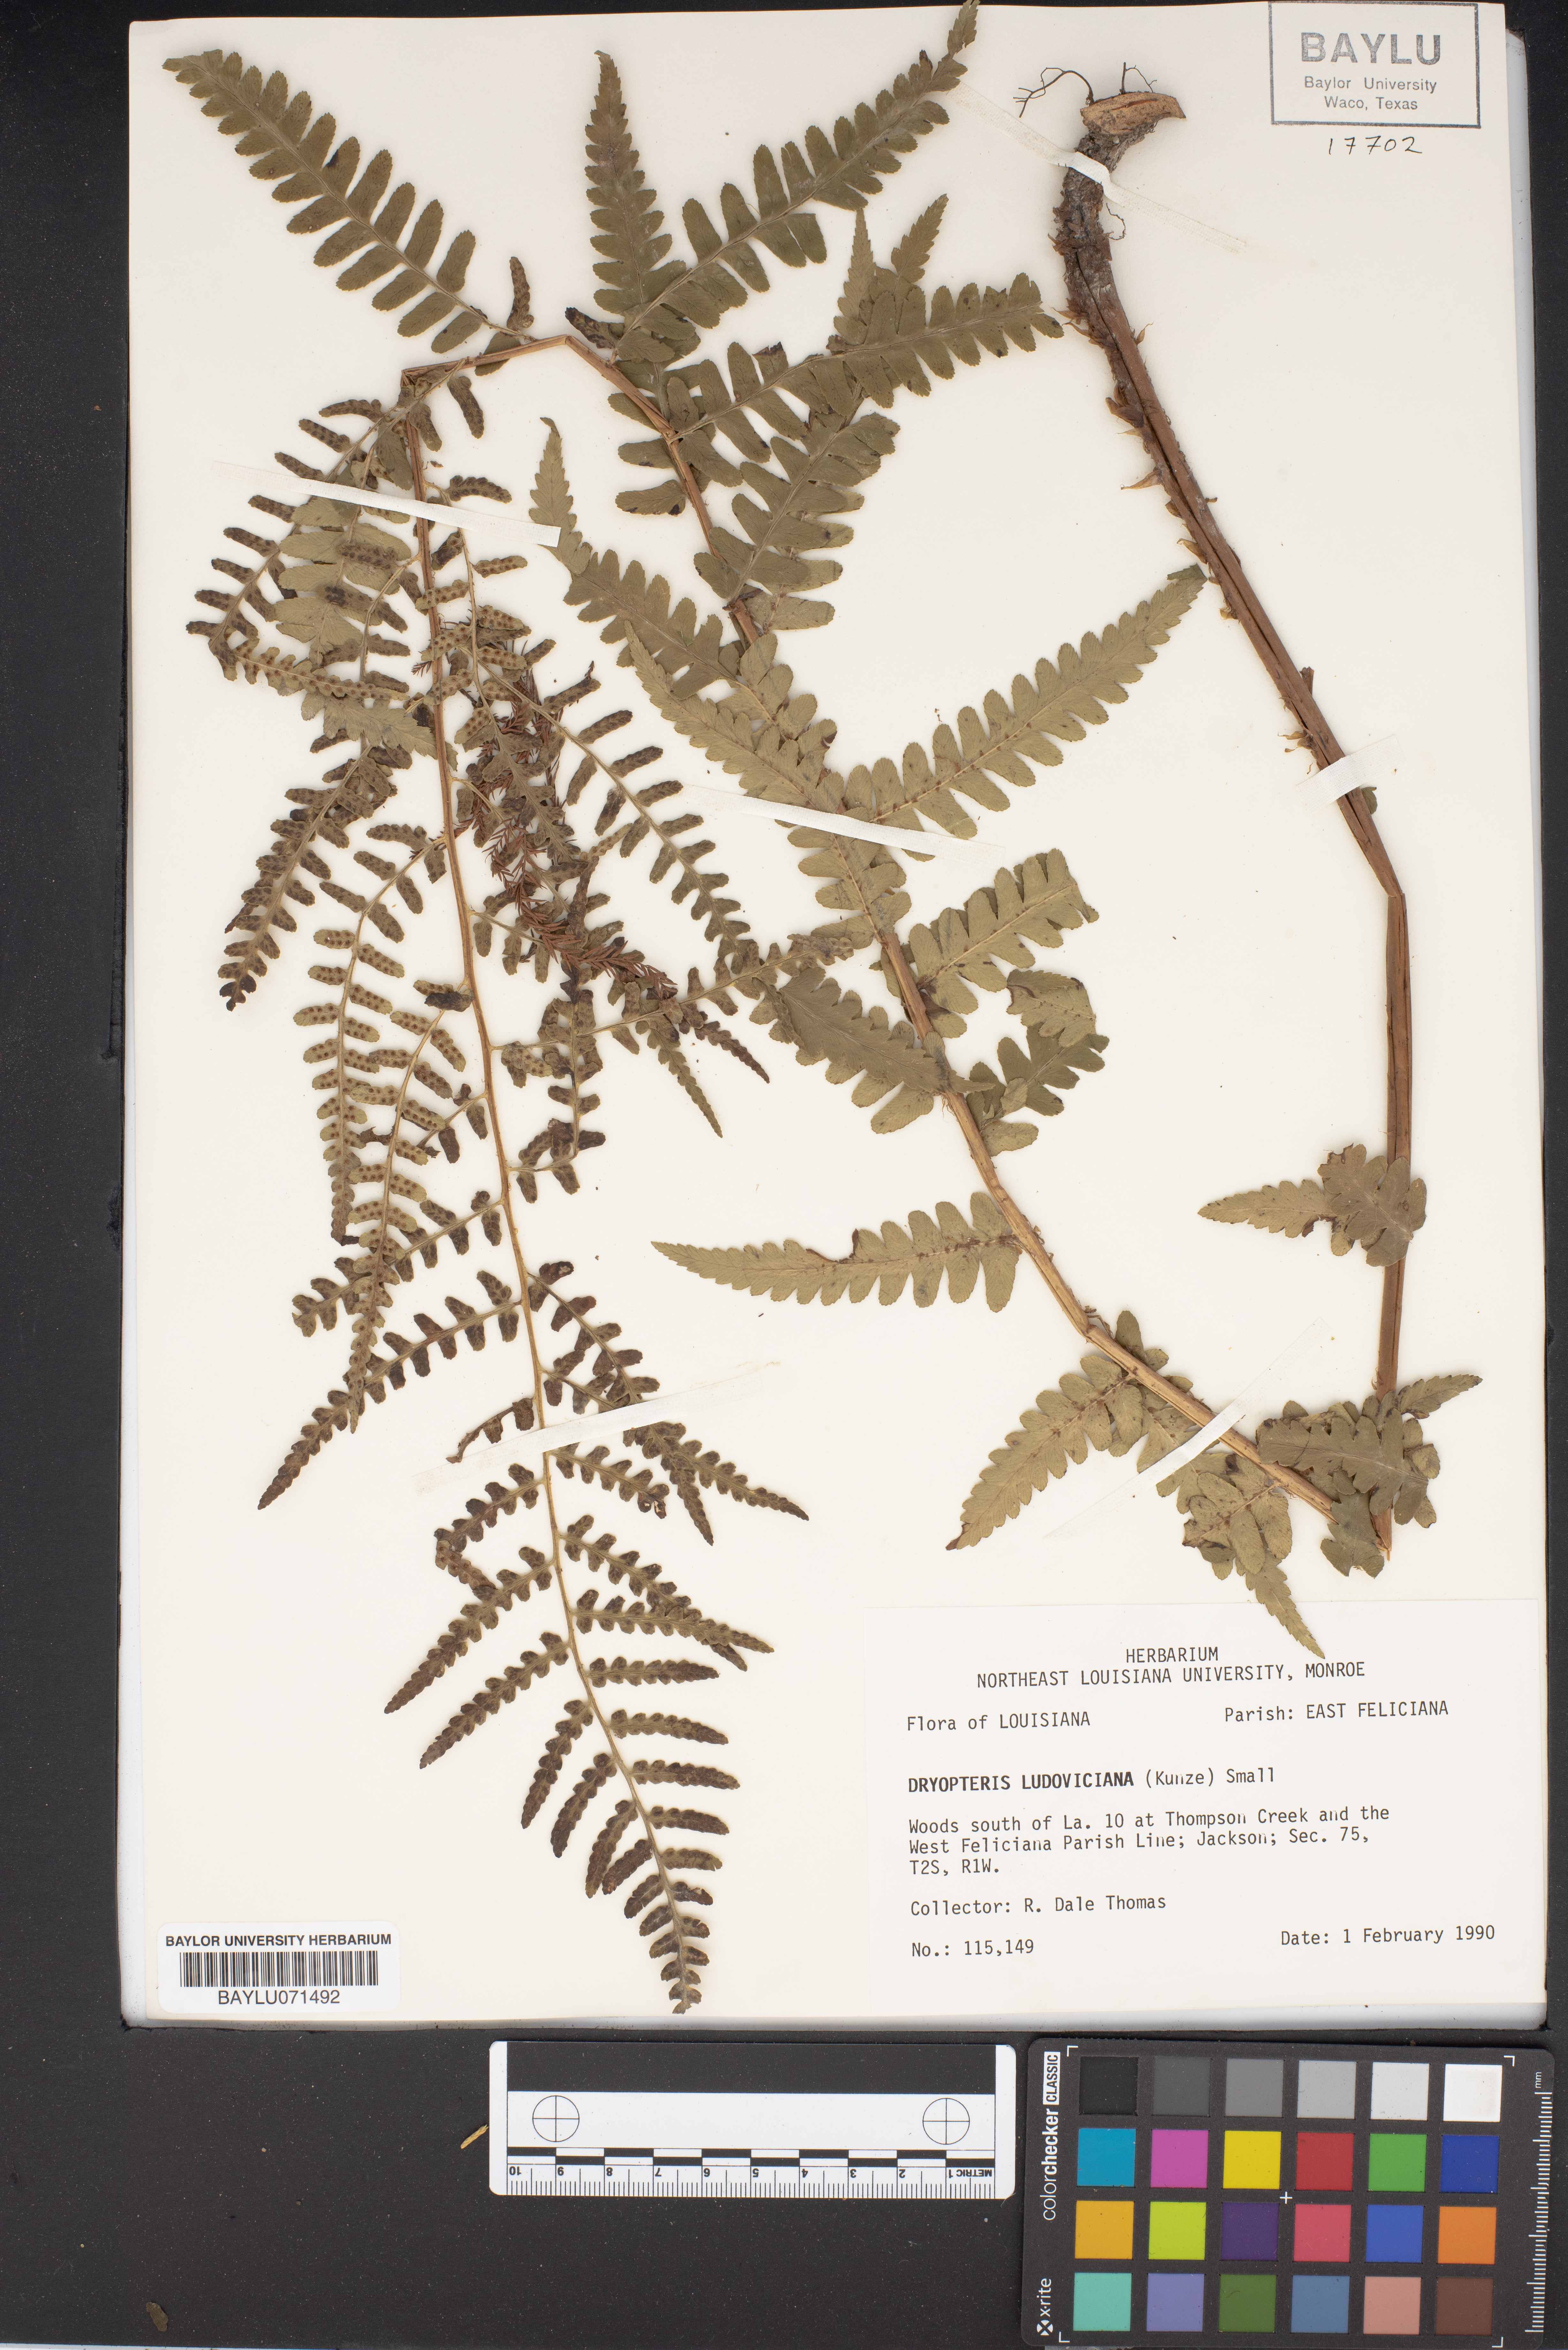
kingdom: Plantae
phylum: Tracheophyta
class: Polypodiopsida
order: Polypodiales
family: Dryopteridaceae
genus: Dryopteris
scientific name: Dryopteris ludoviciana
